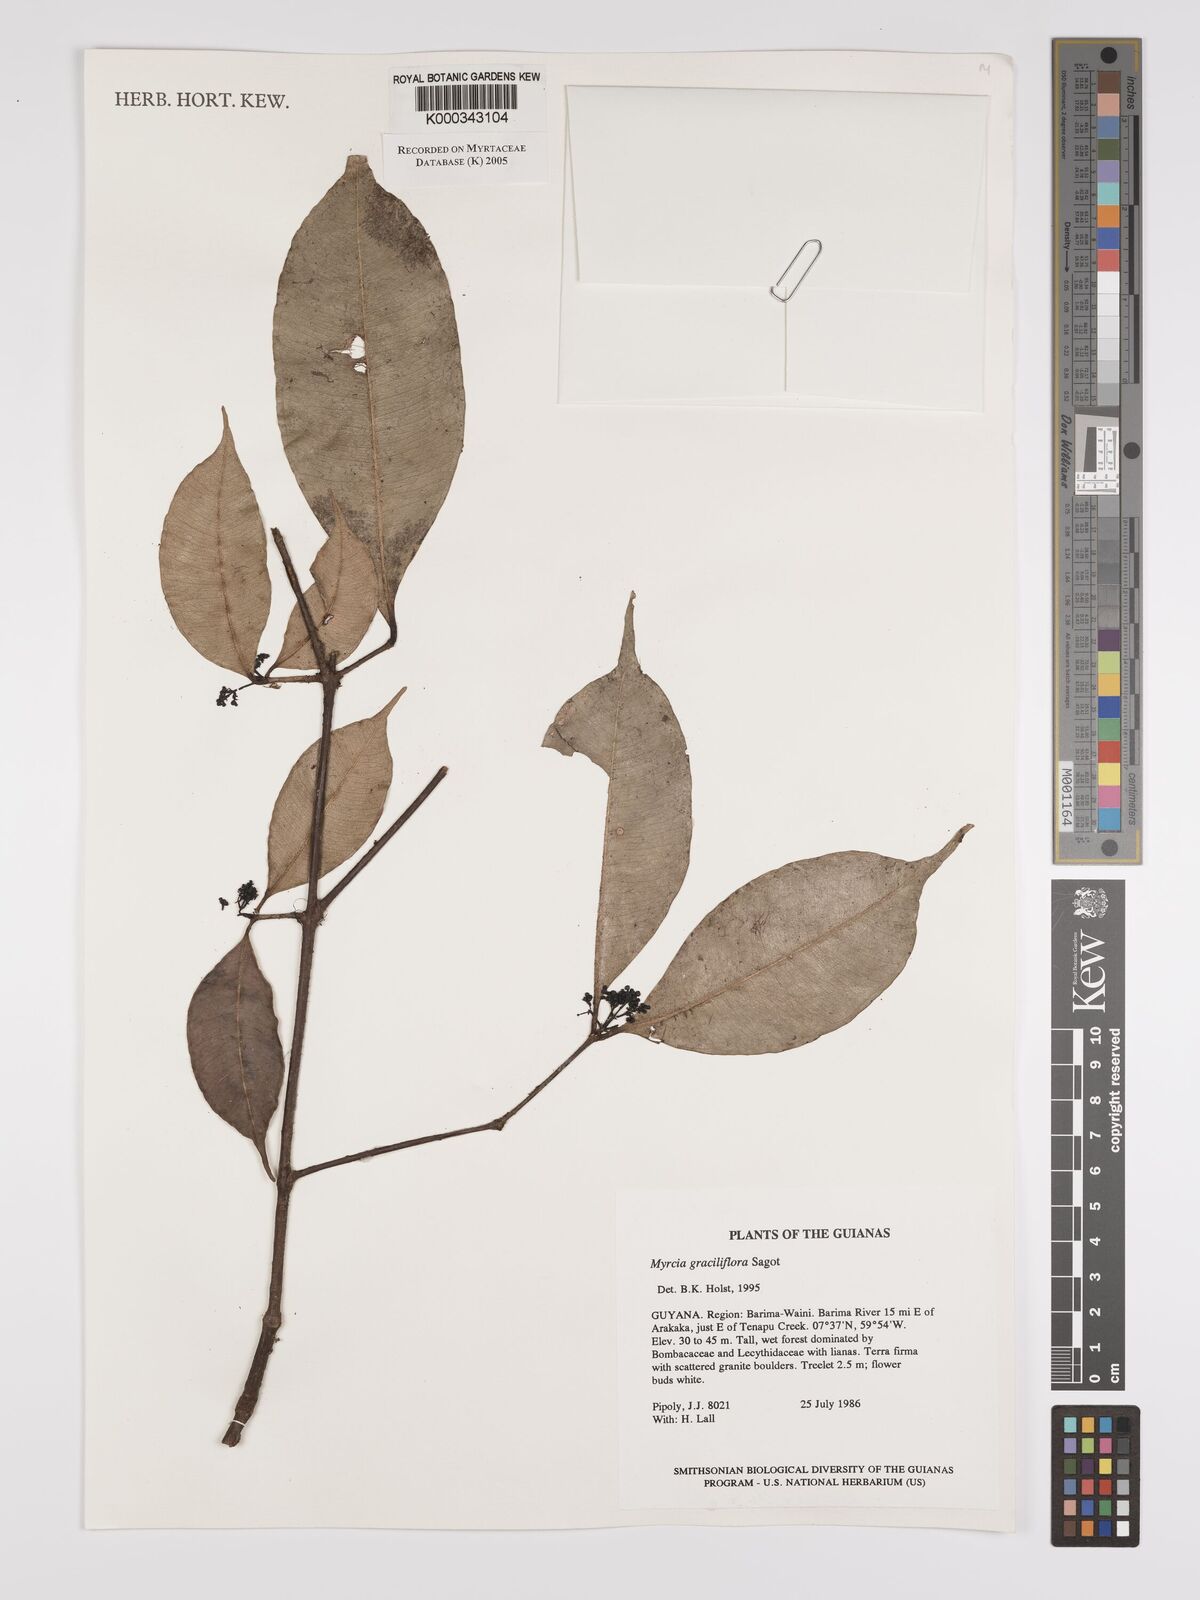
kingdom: Plantae
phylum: Tracheophyta
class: Magnoliopsida
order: Myrtales
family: Myrtaceae
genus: Myrcia
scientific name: Myrcia graciliflora
